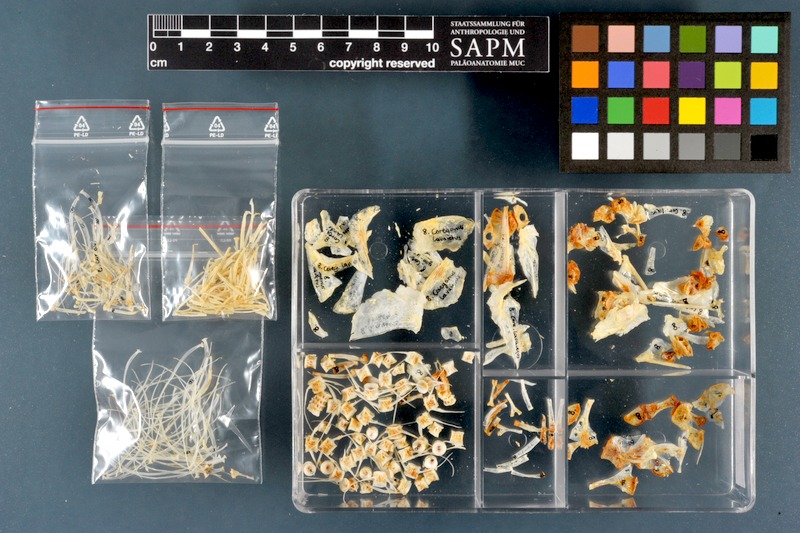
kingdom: Animalia
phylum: Chordata
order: Salmoniformes
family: Salmonidae
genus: Coregonus
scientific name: Coregonus lavaretus
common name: Schelly
